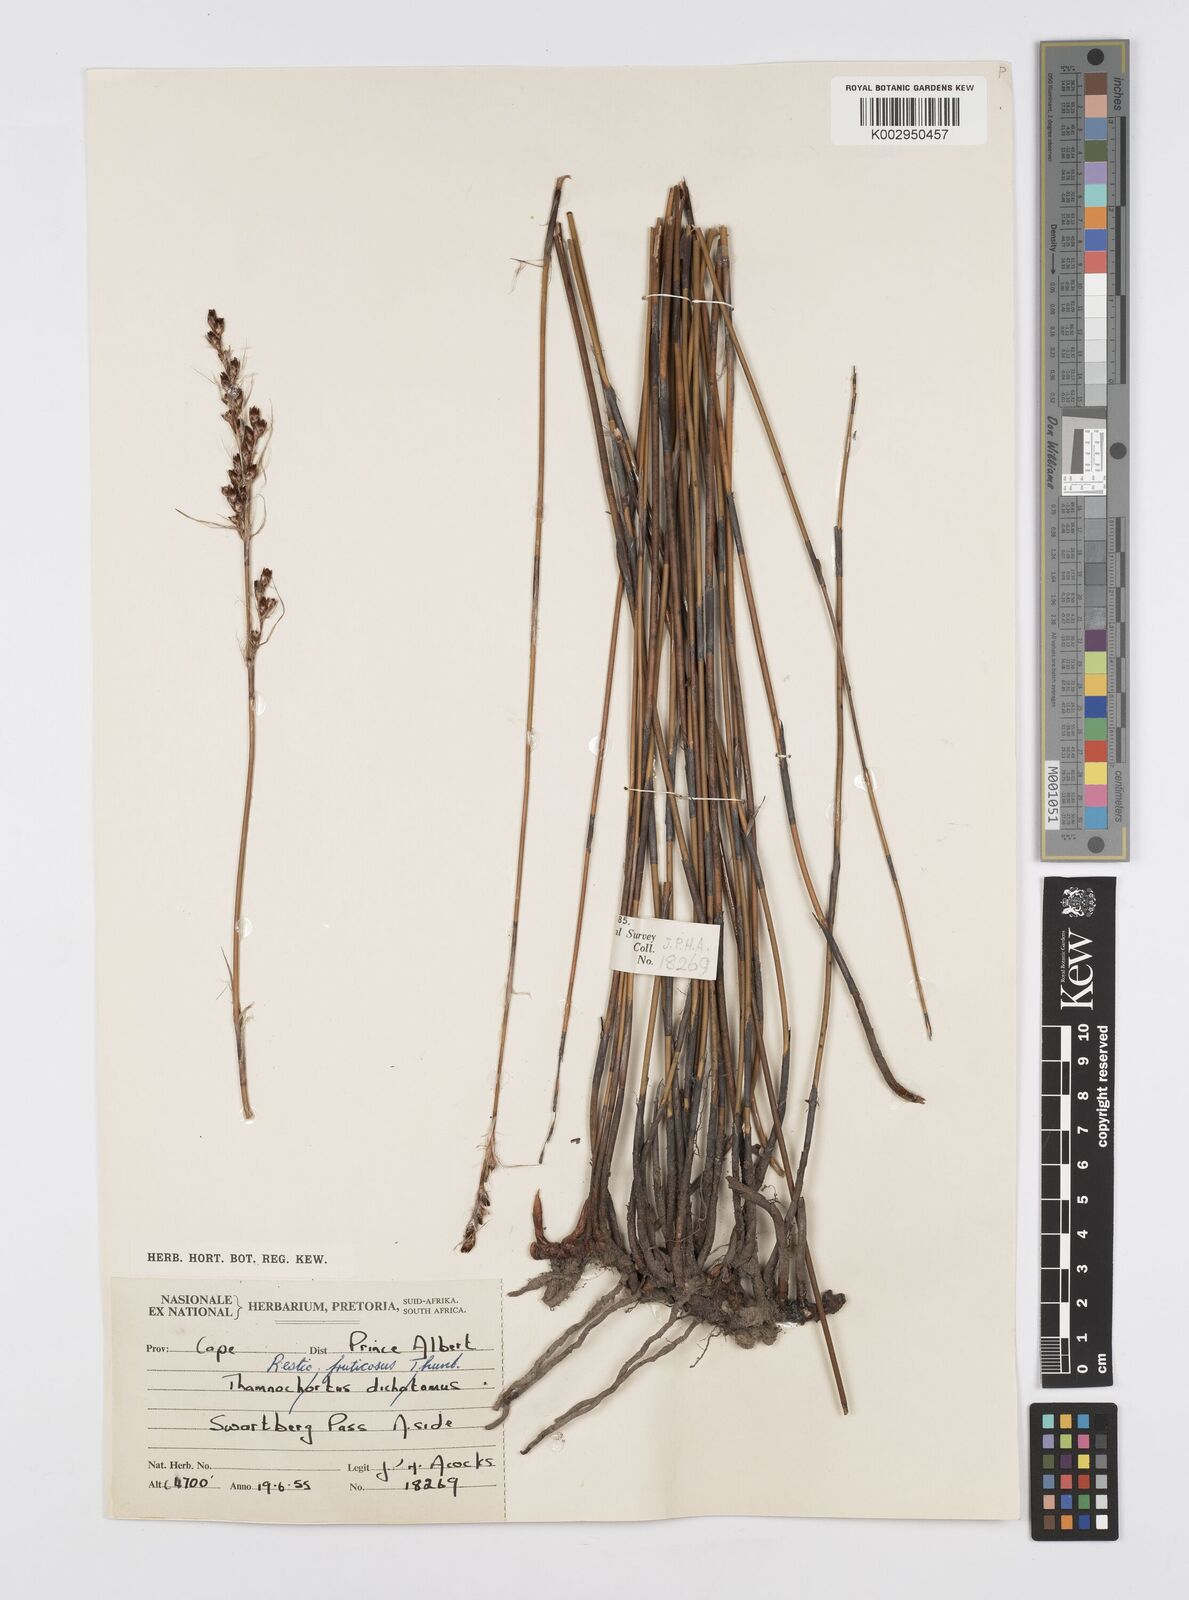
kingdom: Plantae
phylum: Tracheophyta
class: Liliopsida
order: Poales
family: Restionaceae
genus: Rhodocoma
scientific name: Rhodocoma fruticosa
